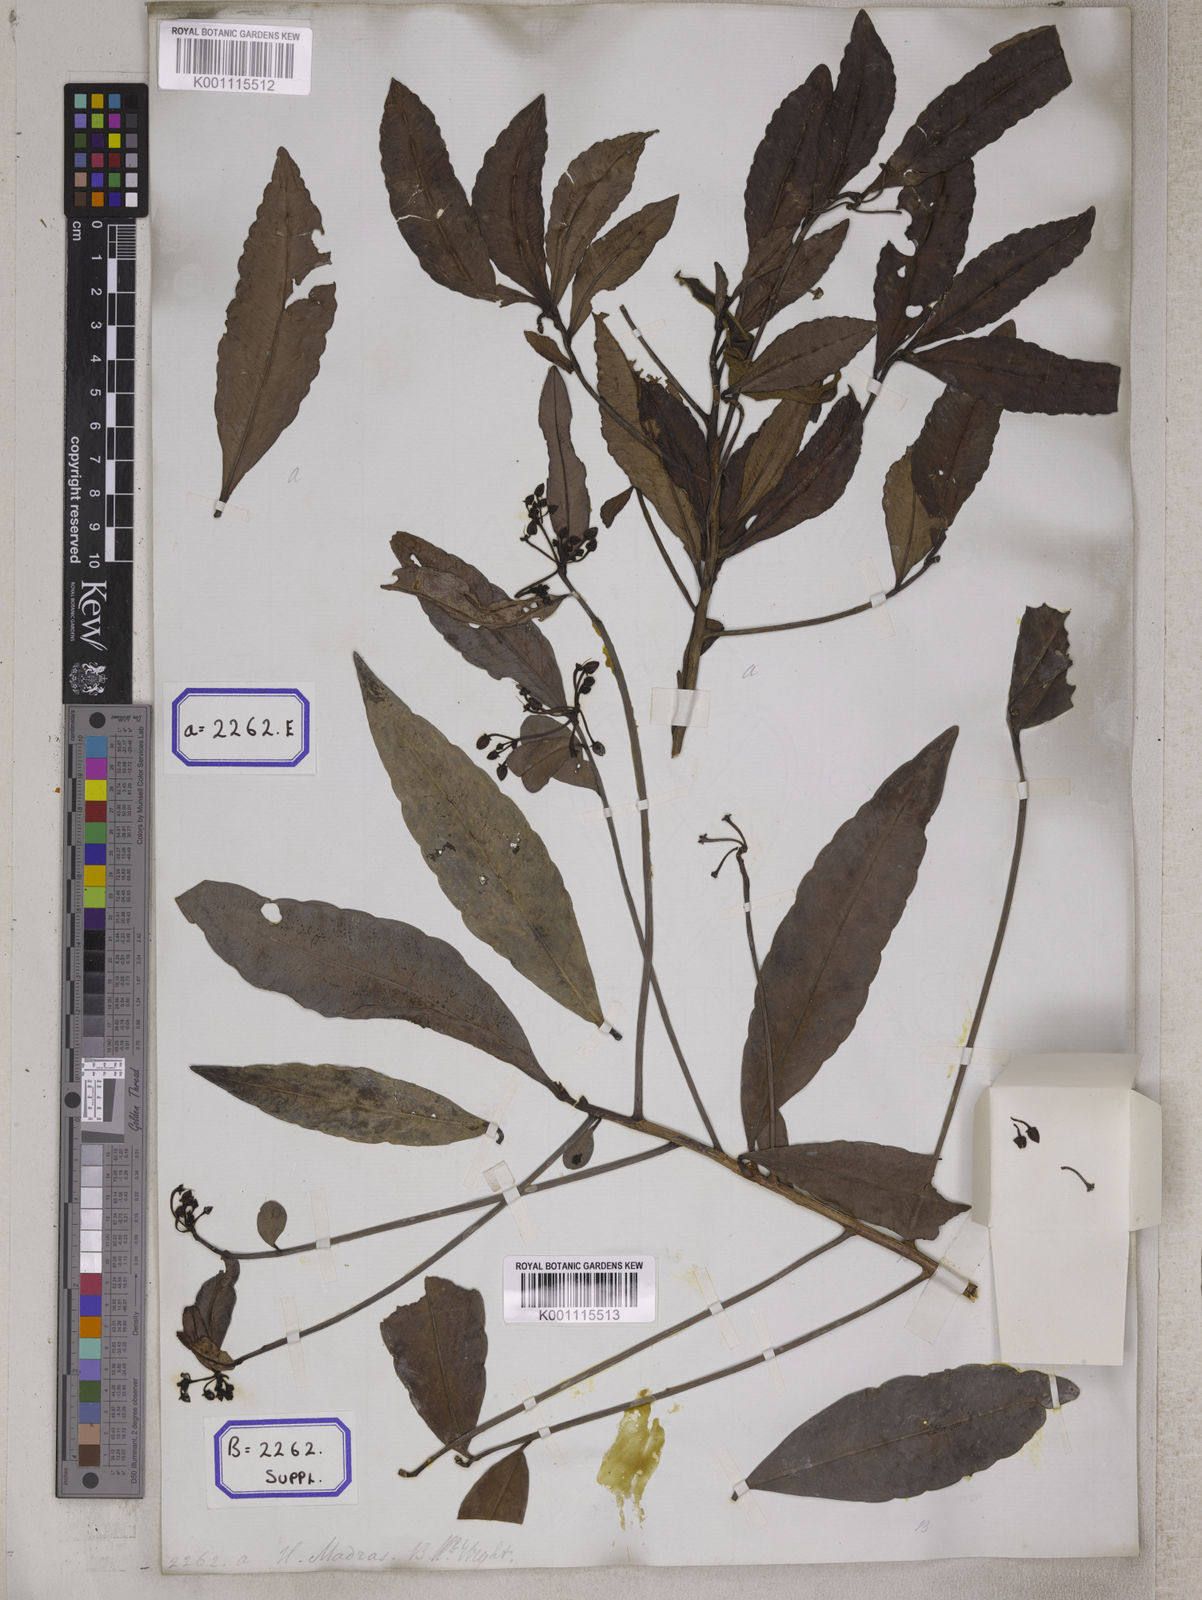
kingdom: Plantae
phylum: Tracheophyta
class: Magnoliopsida
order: Ericales
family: Primulaceae
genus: Ardisia
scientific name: Ardisia
